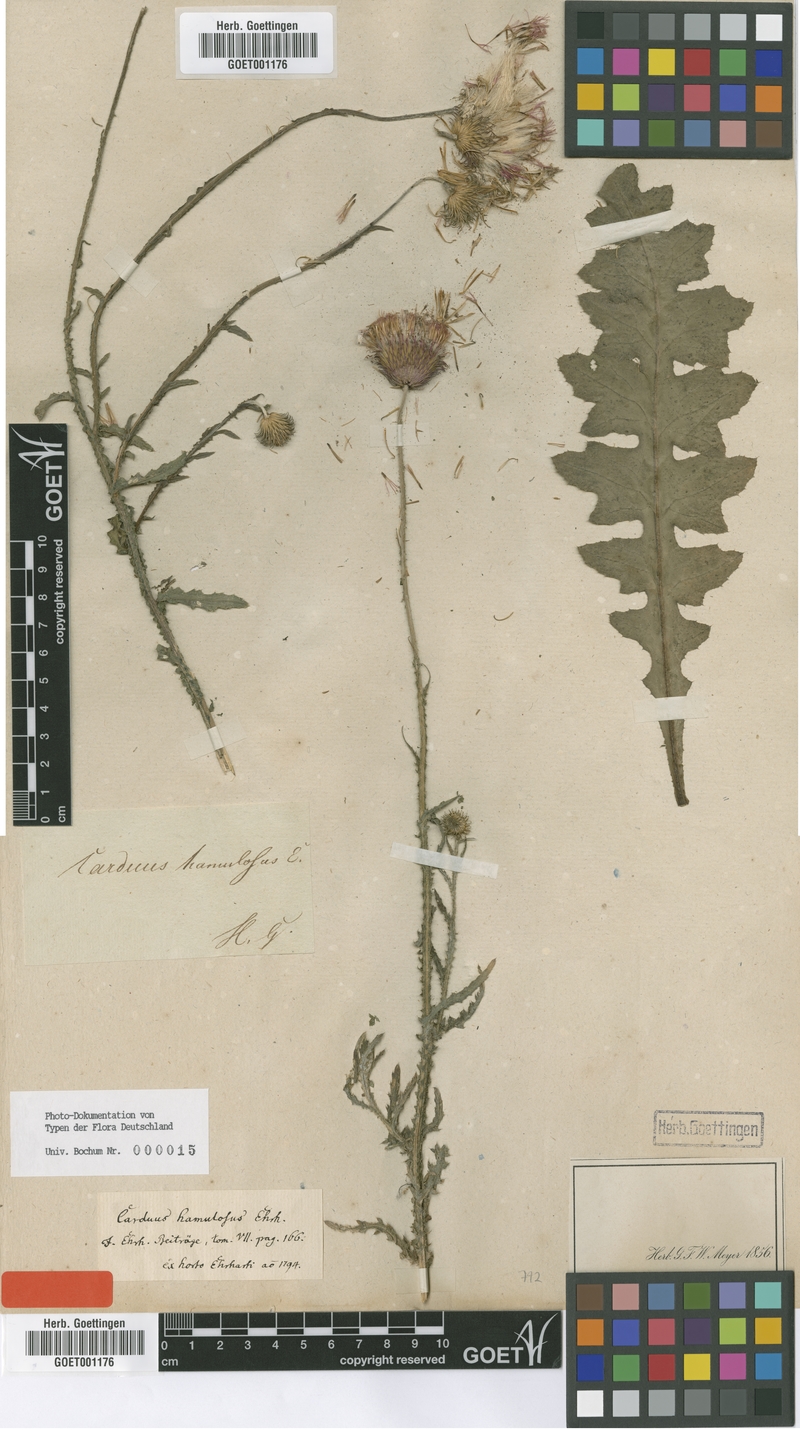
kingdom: Plantae
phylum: Tracheophyta
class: Magnoliopsida
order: Asterales
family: Asteraceae
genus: Carduus
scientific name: Carduus hamulosus
